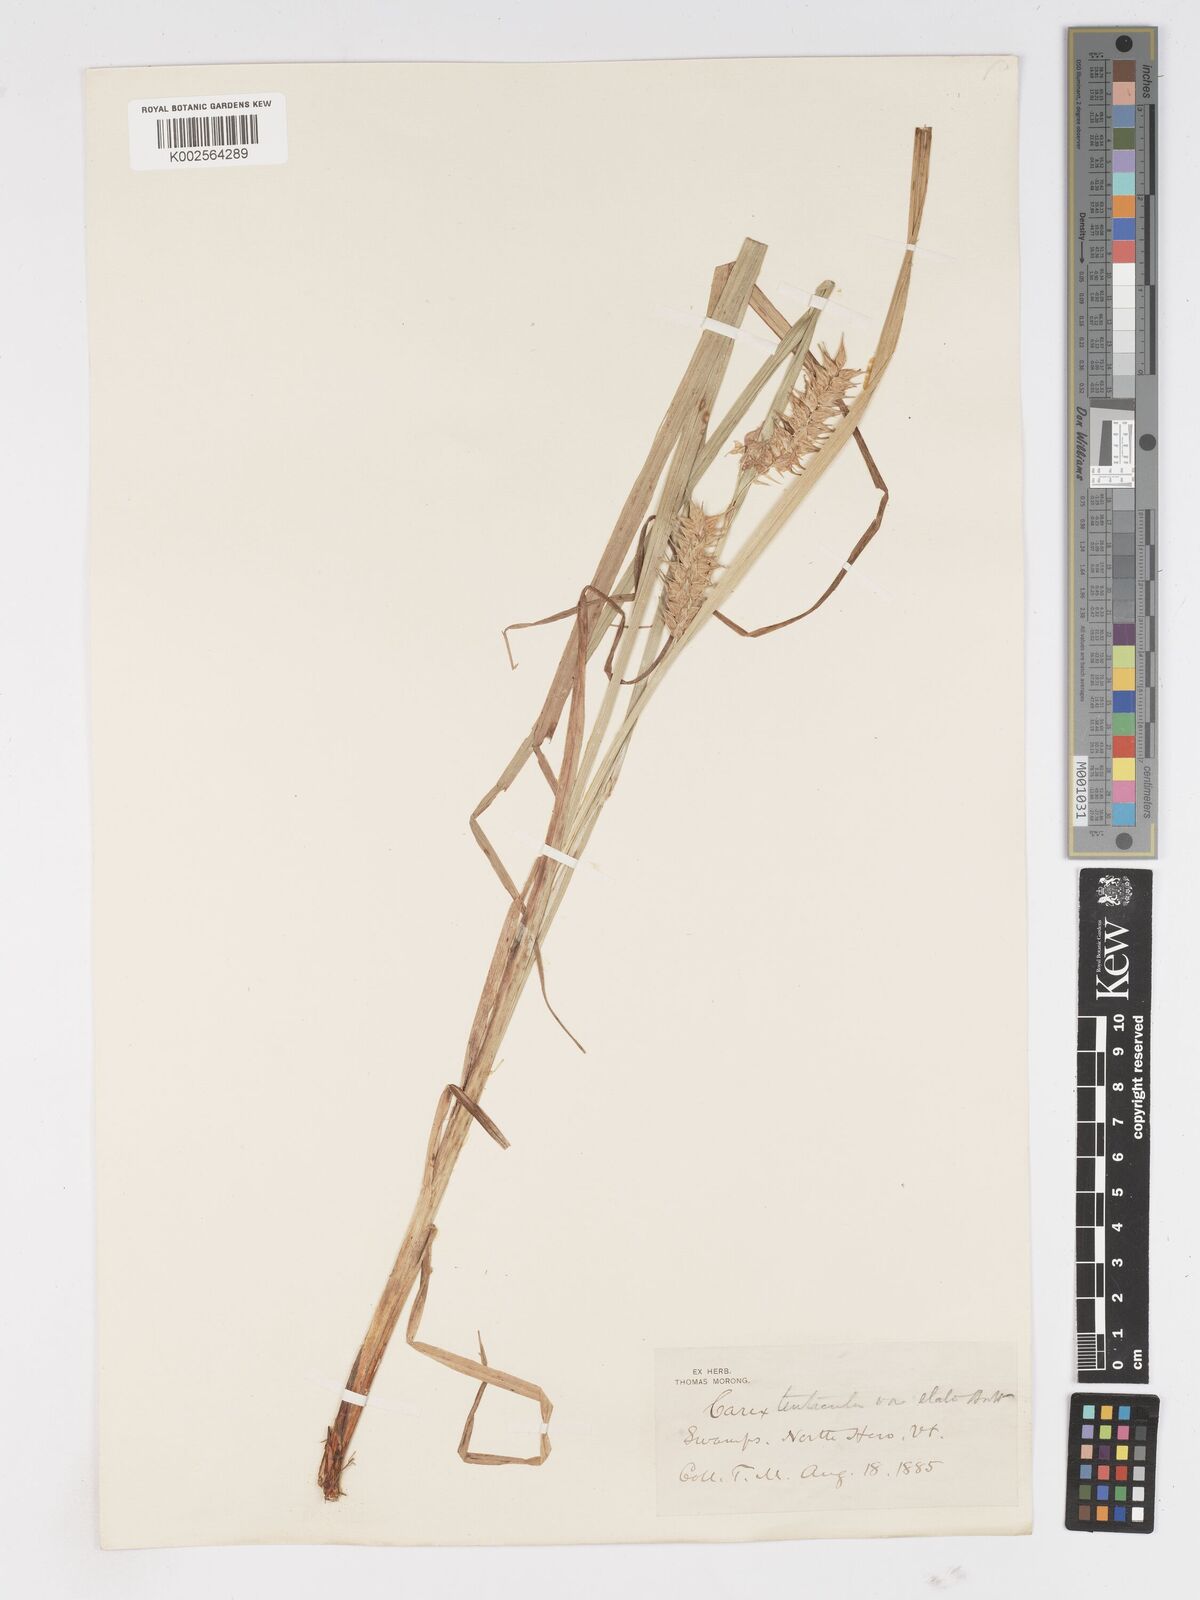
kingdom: Plantae
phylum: Tracheophyta
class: Liliopsida
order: Poales
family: Cyperaceae
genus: Carex
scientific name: Carex lurida
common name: Sallow sedge
